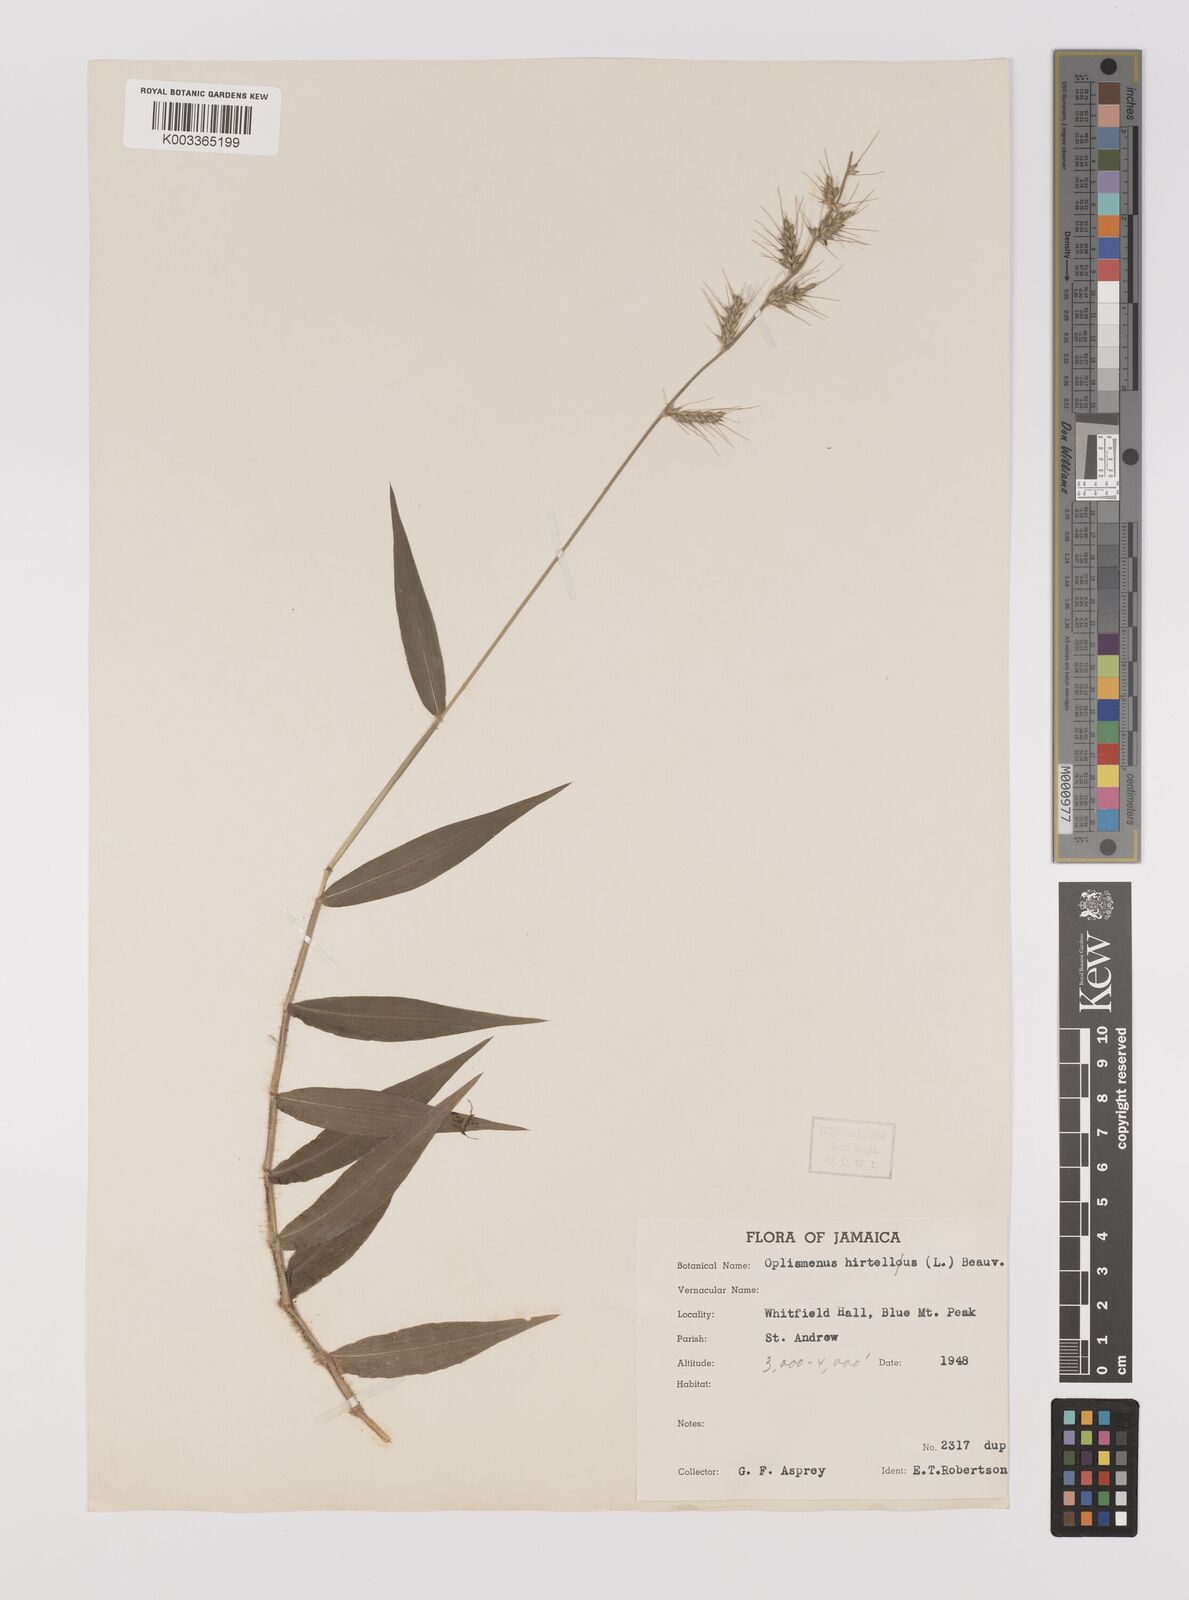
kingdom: Plantae
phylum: Tracheophyta
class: Liliopsida
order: Poales
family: Poaceae
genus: Oplismenus
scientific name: Oplismenus hirtellus
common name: Basketgrass
